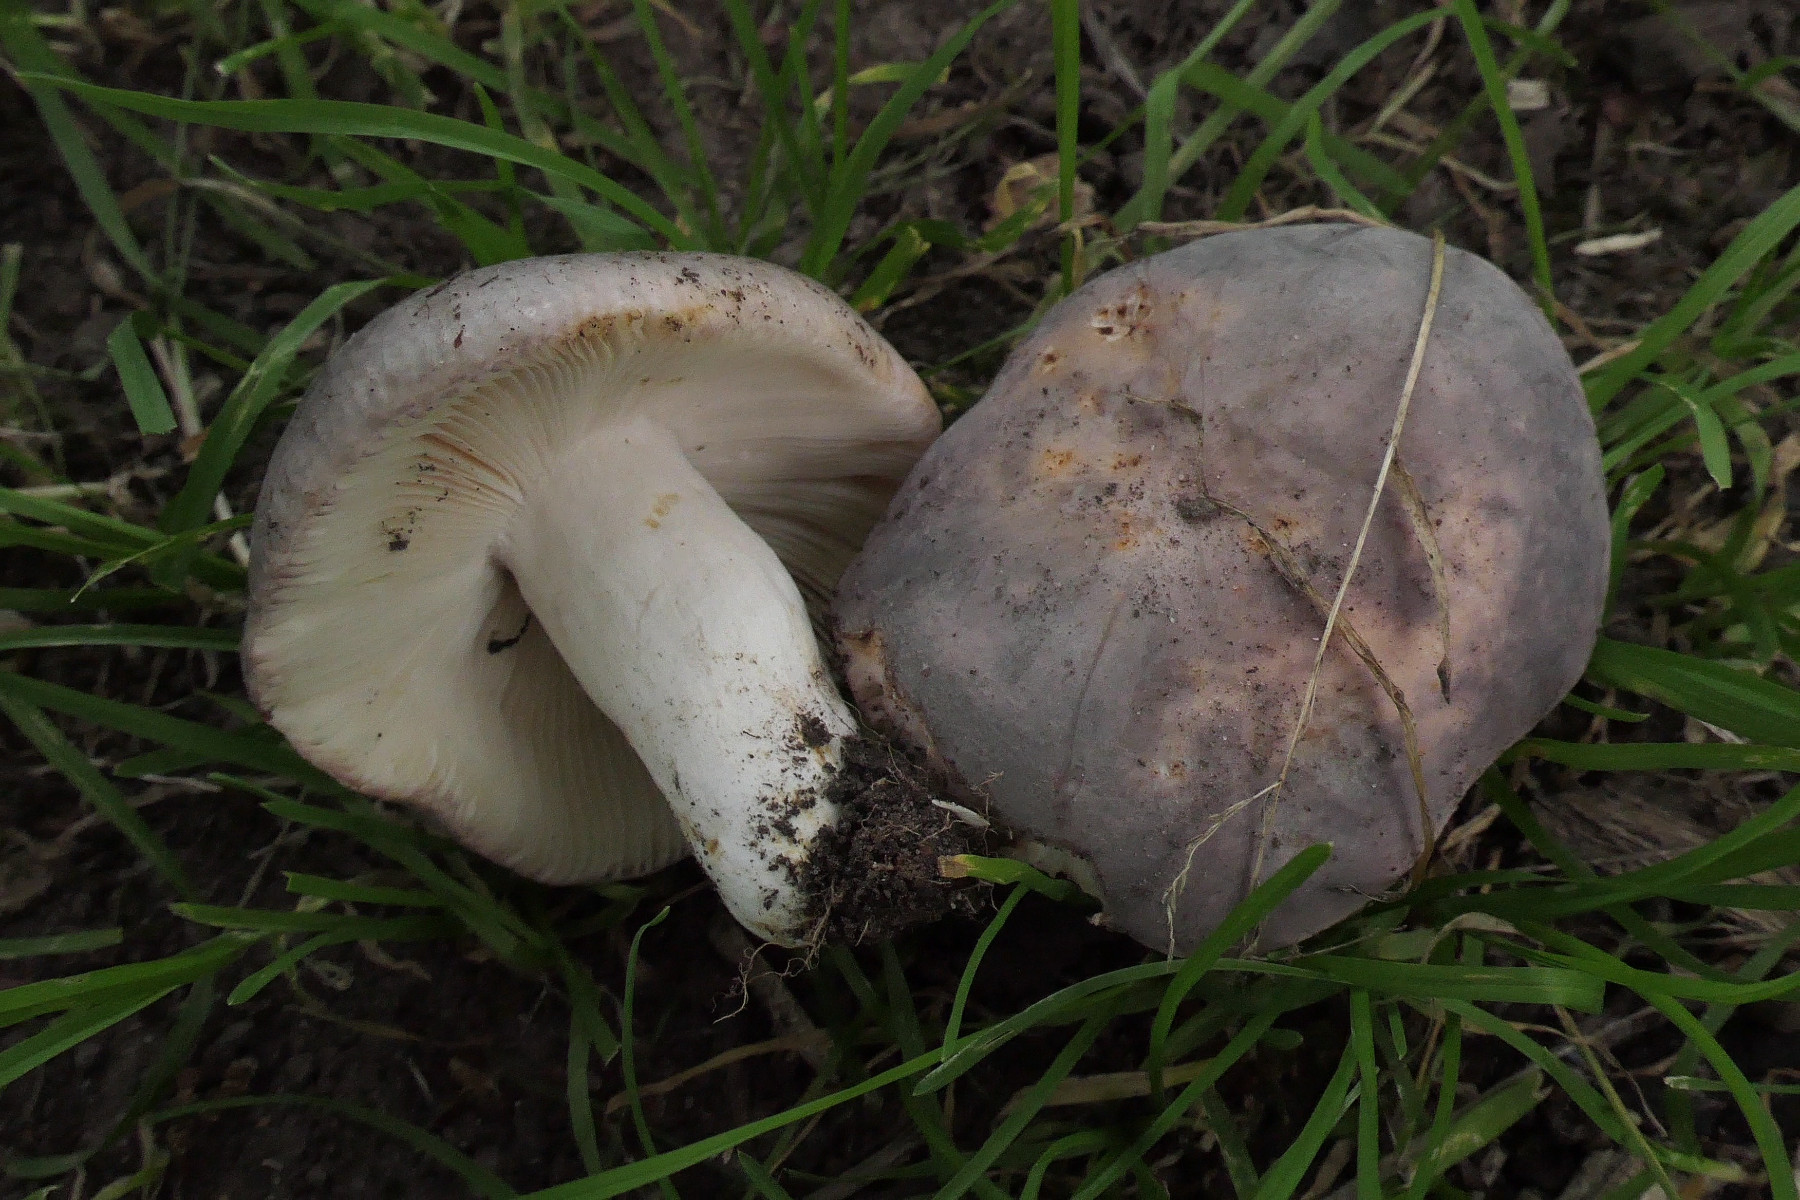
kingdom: Fungi
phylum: Basidiomycota
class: Agaricomycetes
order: Russulales
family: Russulaceae
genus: Russula
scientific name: Russula grisea
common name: grålig skørhat
